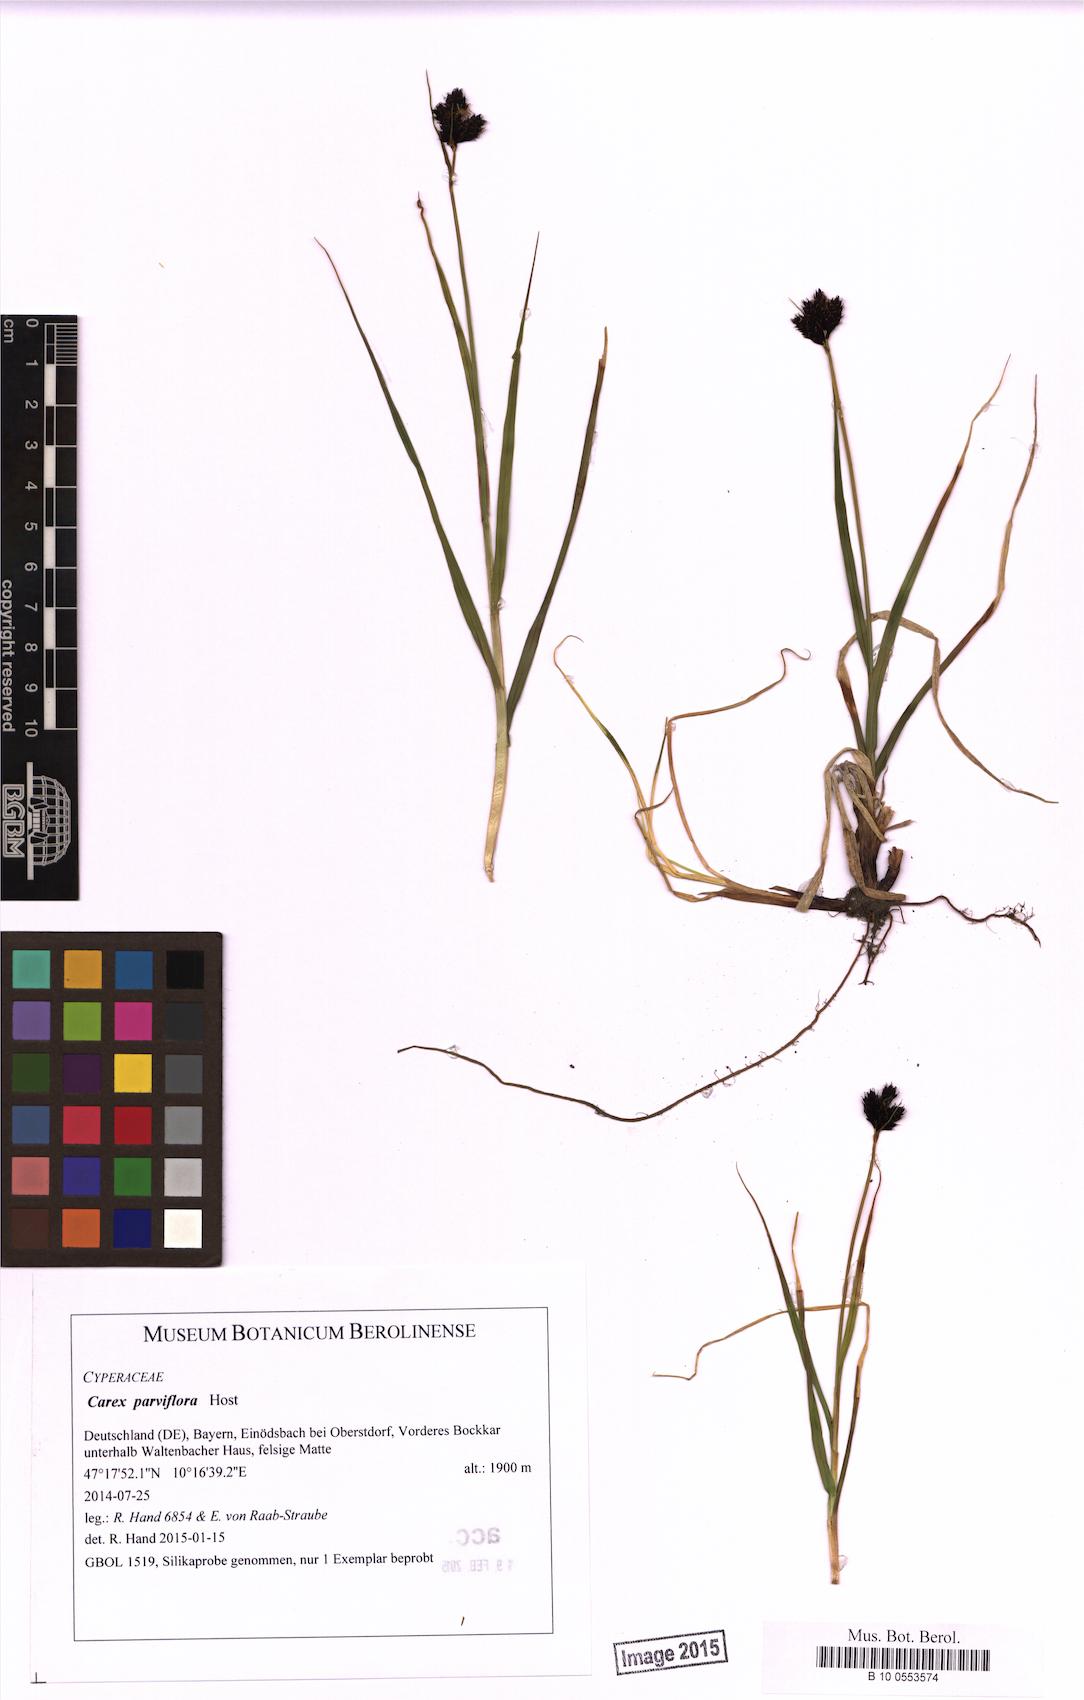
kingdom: Plantae
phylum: Tracheophyta
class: Liliopsida
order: Poales
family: Cyperaceae
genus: Carex
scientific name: Carex parviflora
